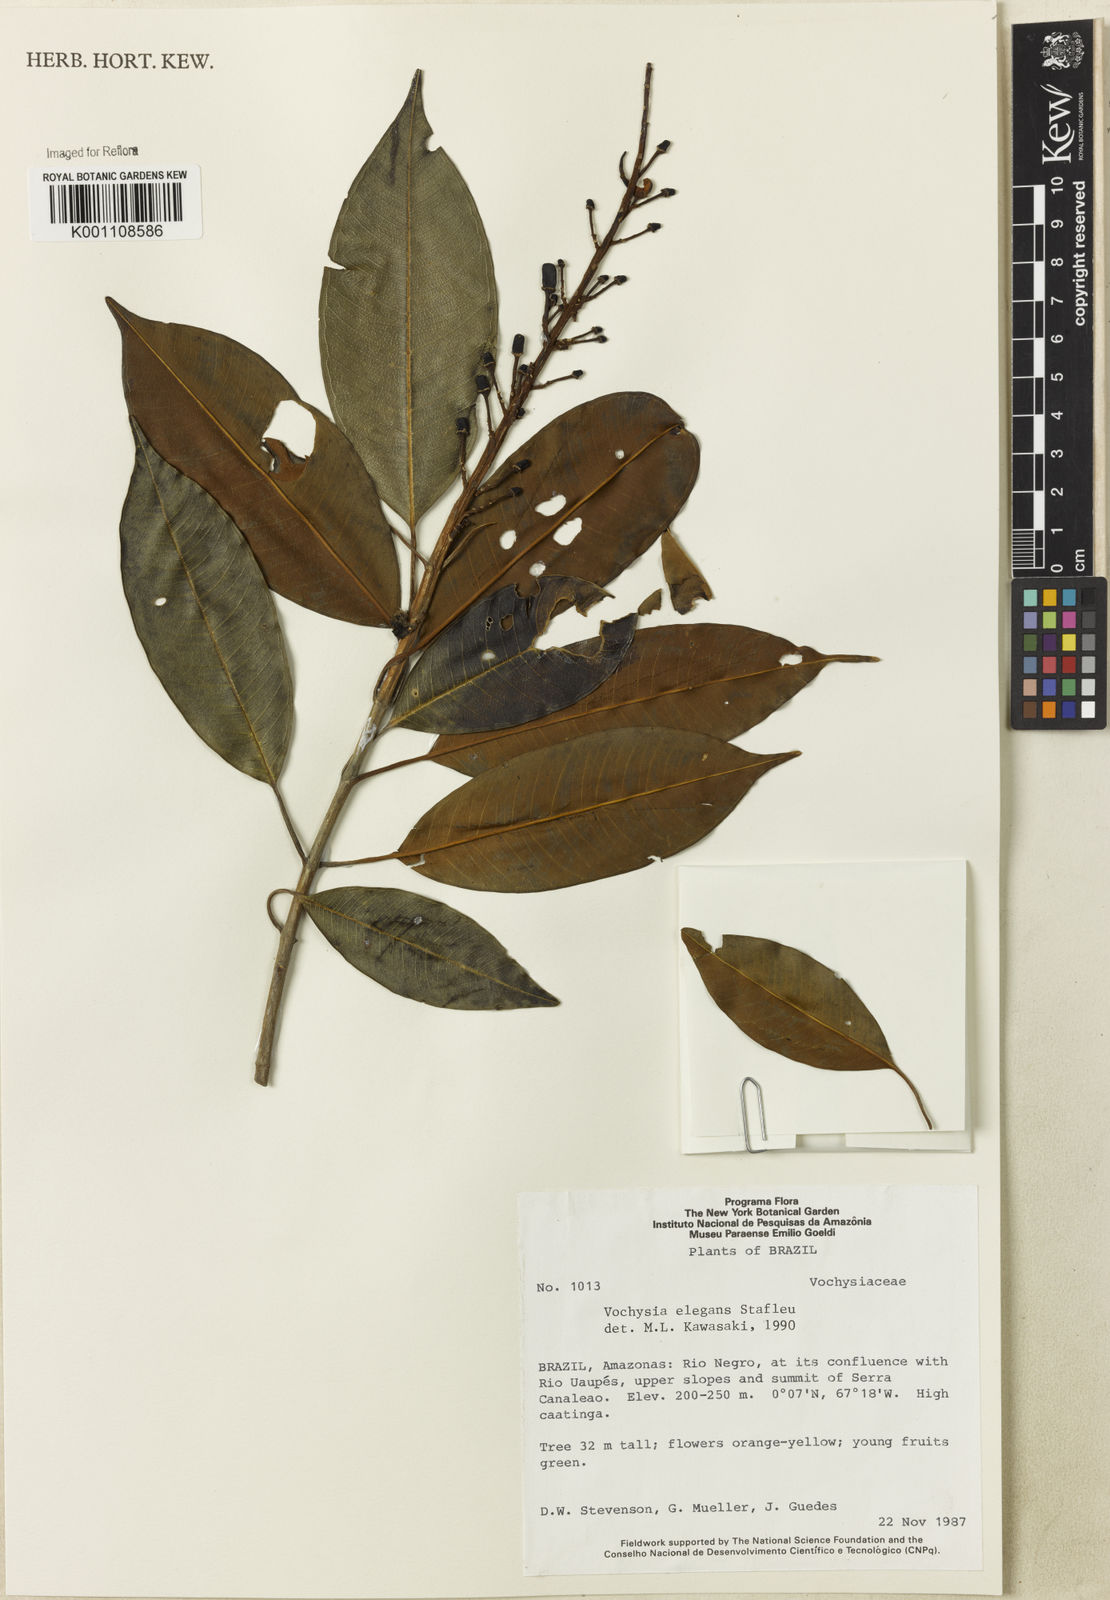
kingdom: Plantae
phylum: Tracheophyta
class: Magnoliopsida
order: Myrtales
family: Vochysiaceae
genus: Vochysia
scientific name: Vochysia elegans
